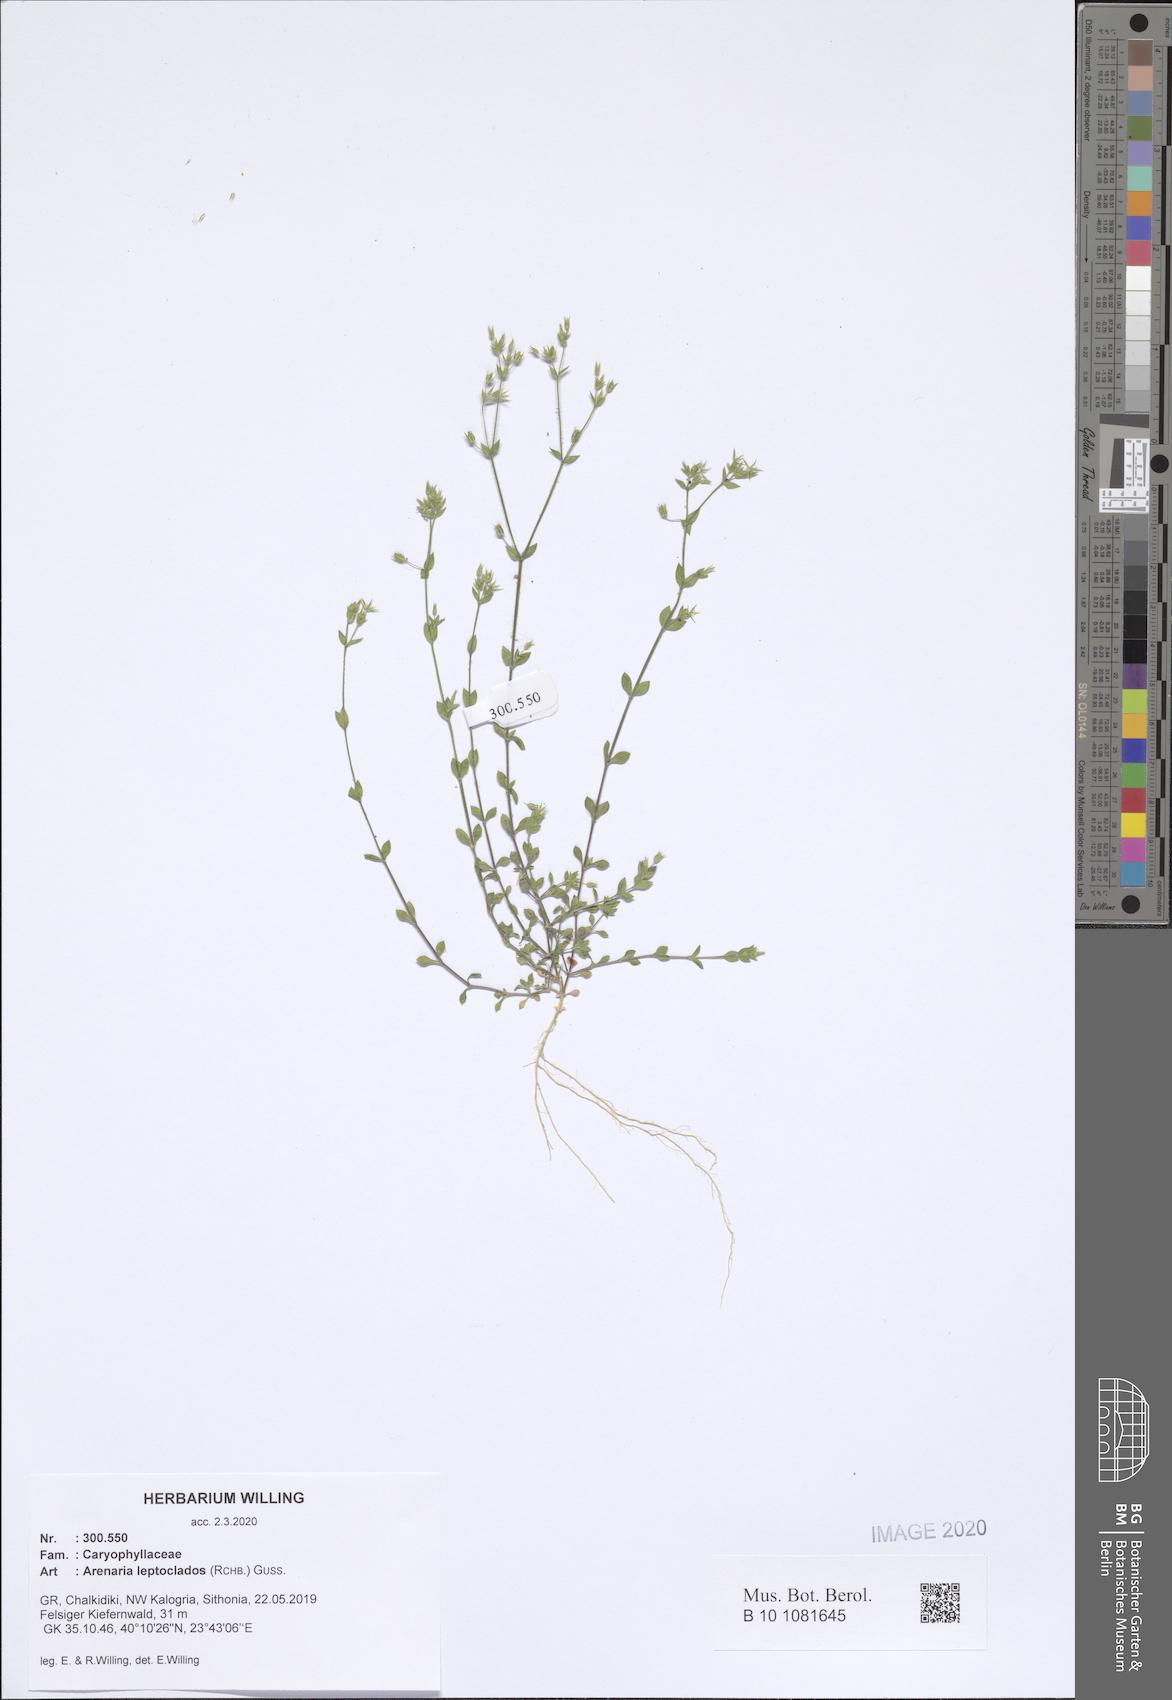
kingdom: Plantae
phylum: Tracheophyta
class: Magnoliopsida
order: Caryophyllales
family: Caryophyllaceae
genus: Arenaria
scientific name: Arenaria leptoclados
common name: Thyme-leaved sandwort
